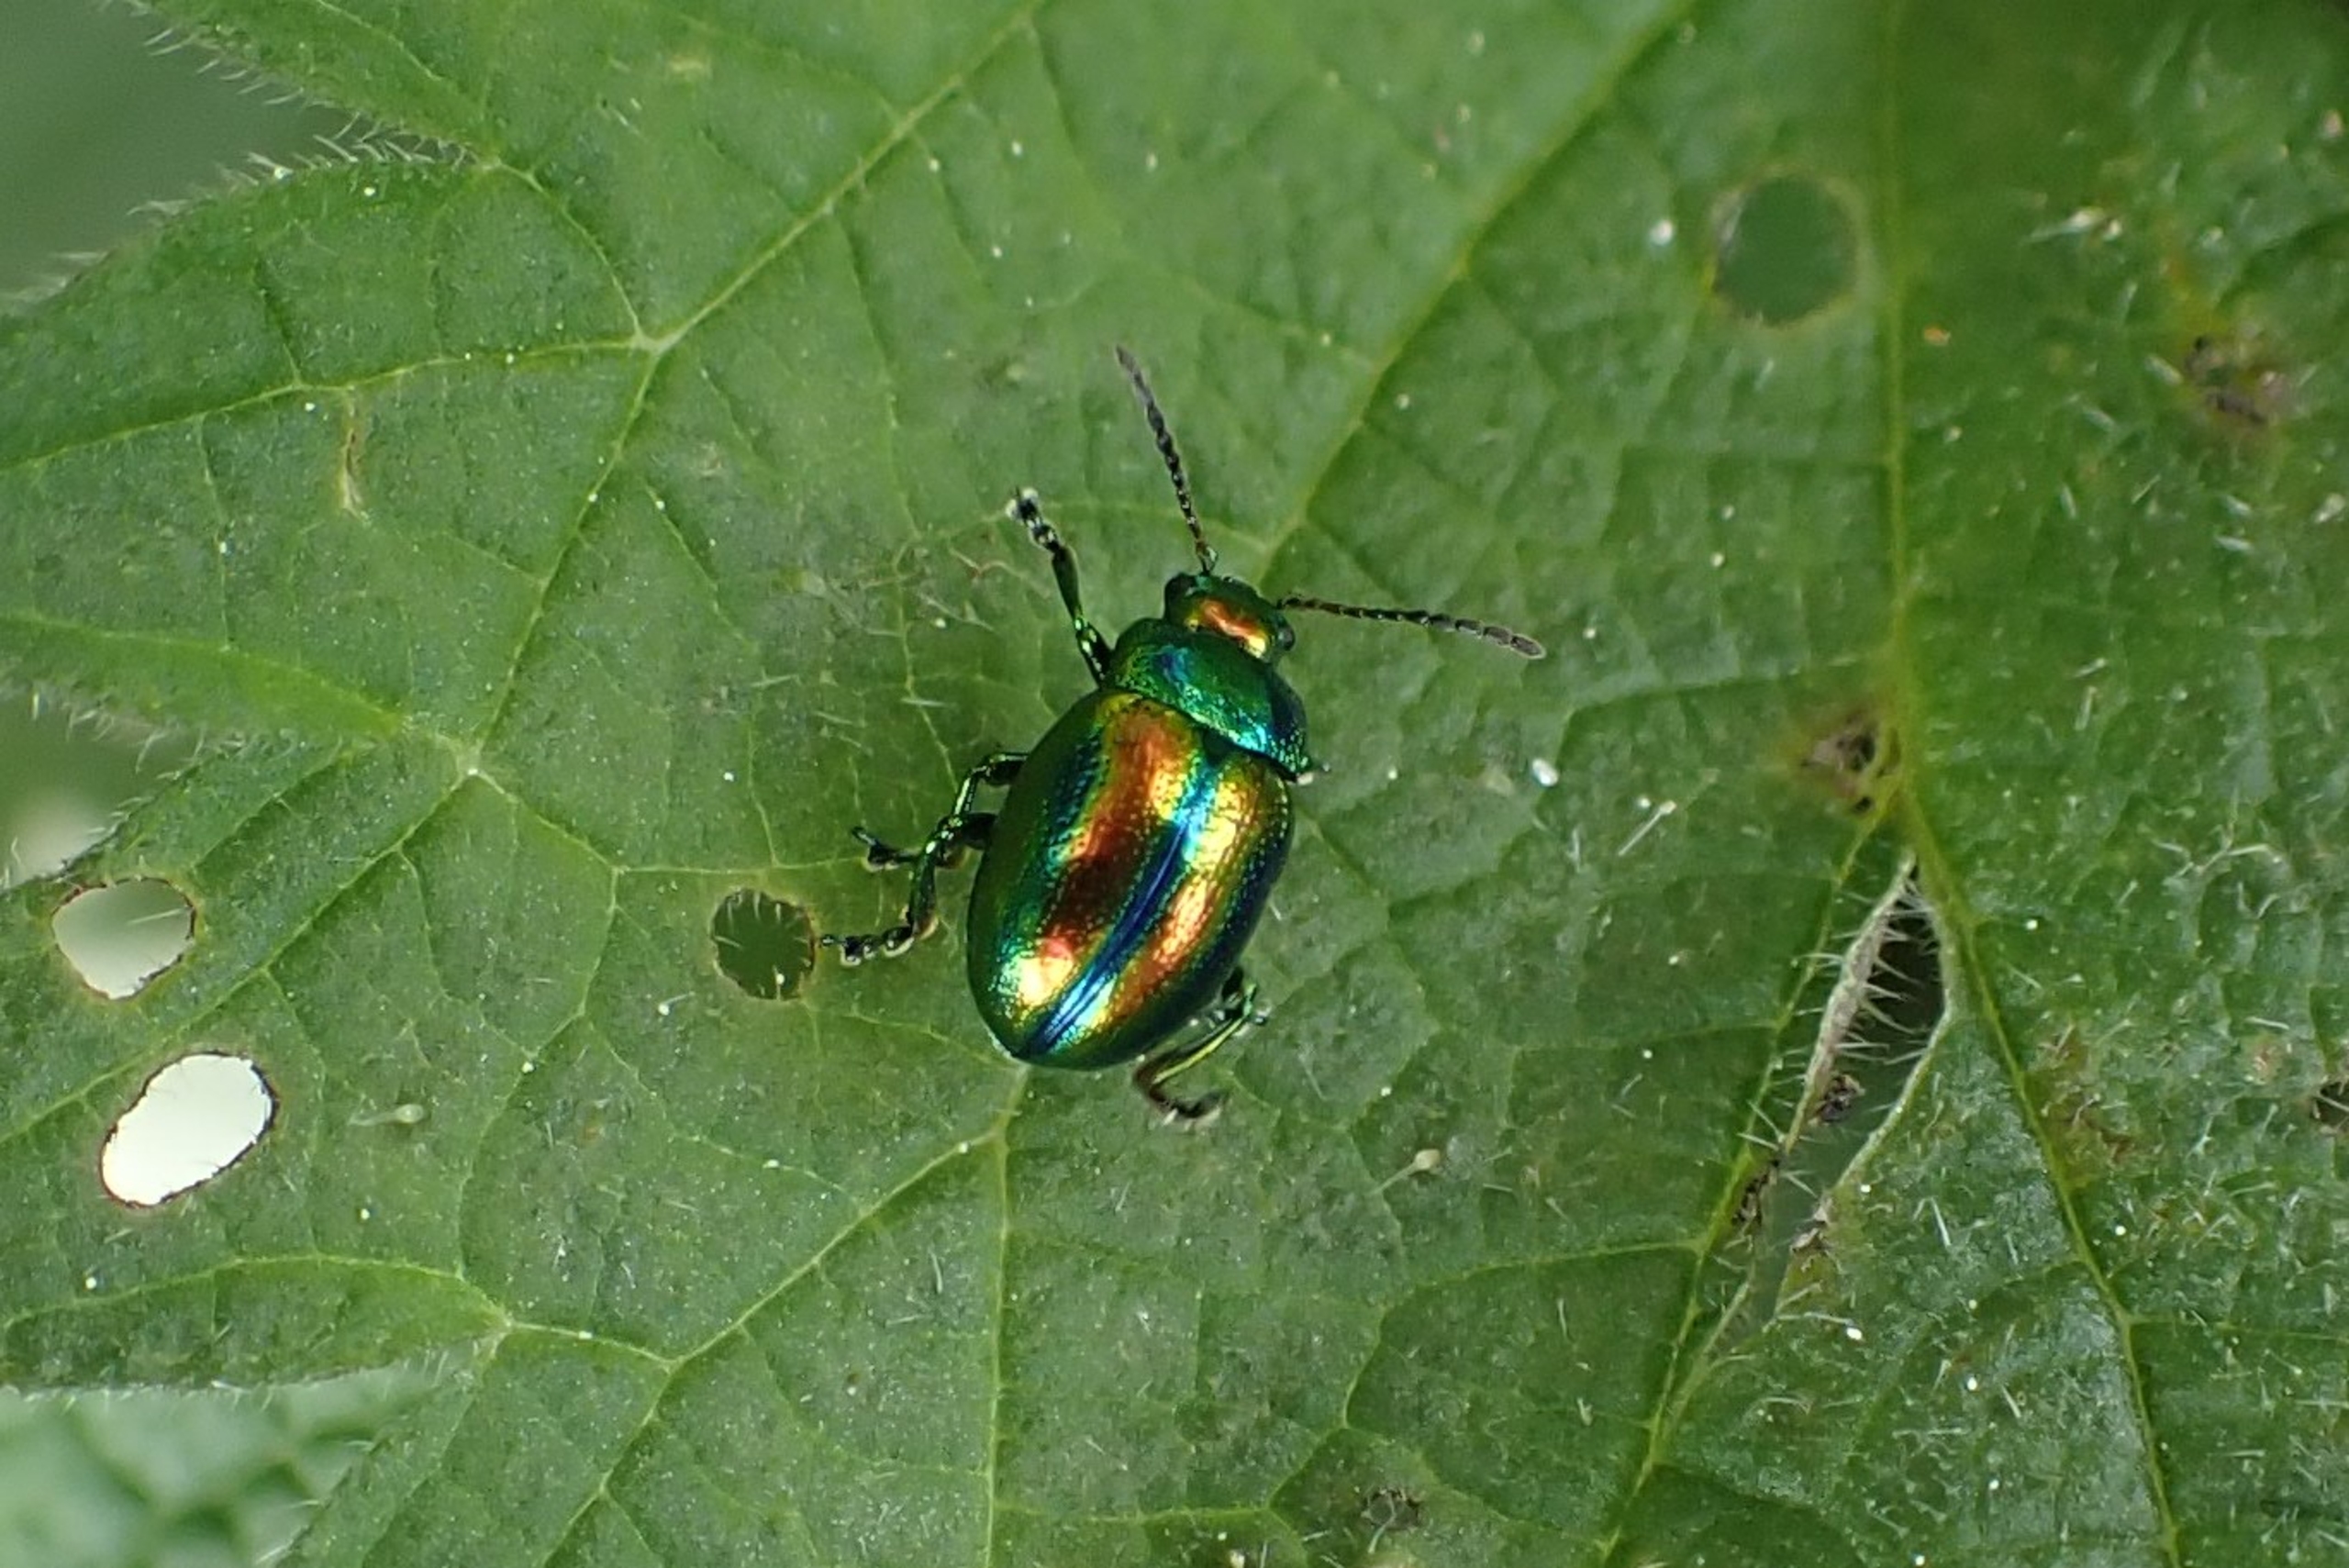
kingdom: Animalia
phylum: Arthropoda
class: Insecta
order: Coleoptera
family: Chrysomelidae
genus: Chrysolina
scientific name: Chrysolina fastuosa
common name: Tvetandbladbille
